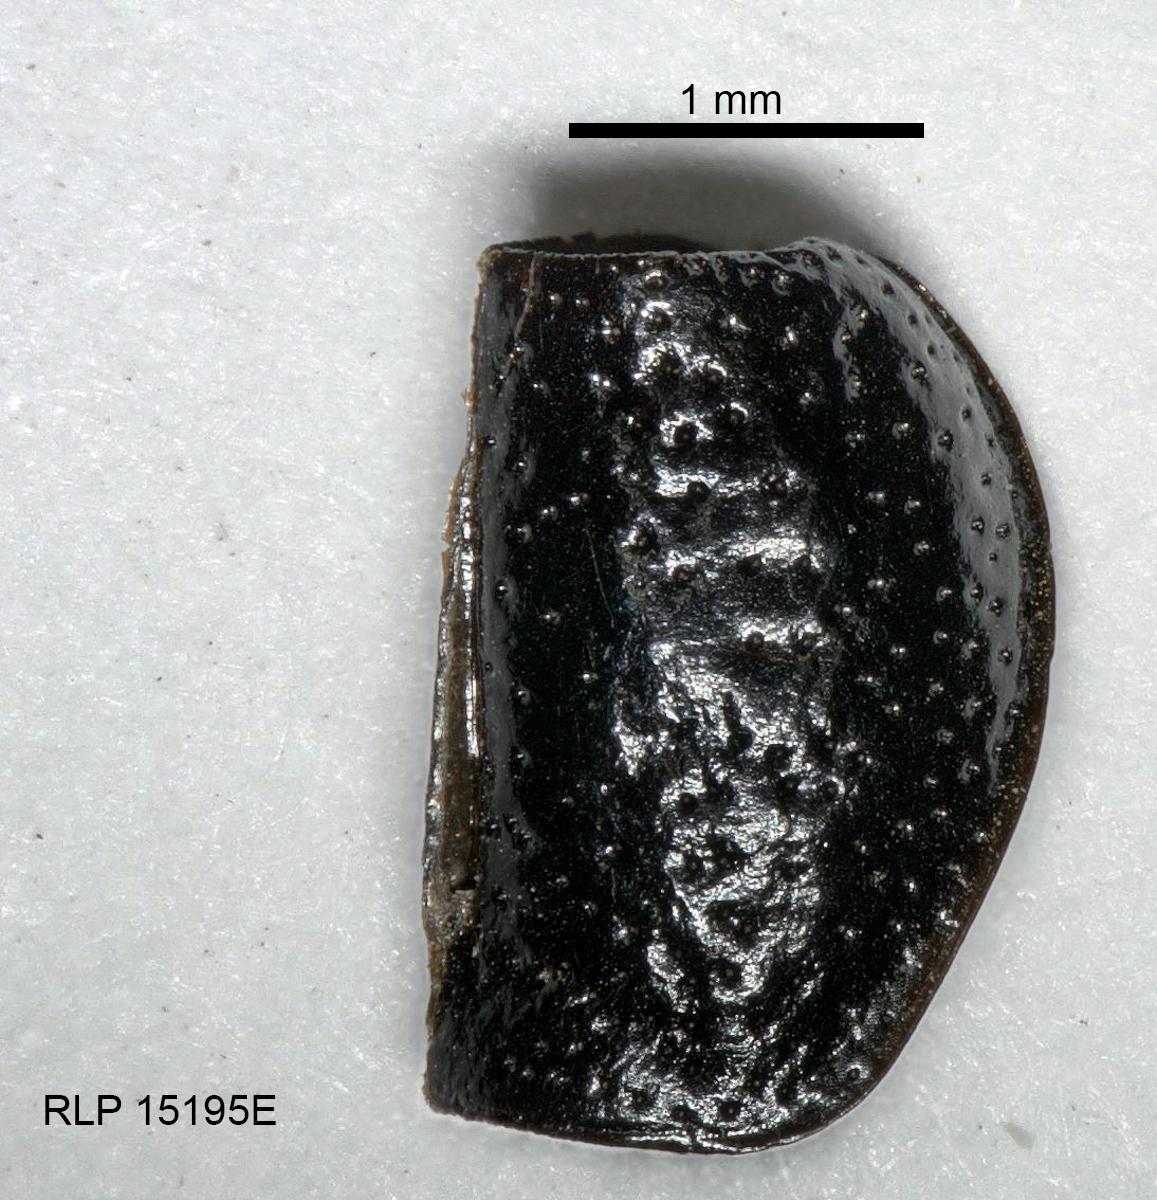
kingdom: Animalia
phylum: Arthropoda
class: Insecta
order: Coleoptera
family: Carabidae
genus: Dicheirus
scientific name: Dicheirus dilatatus
